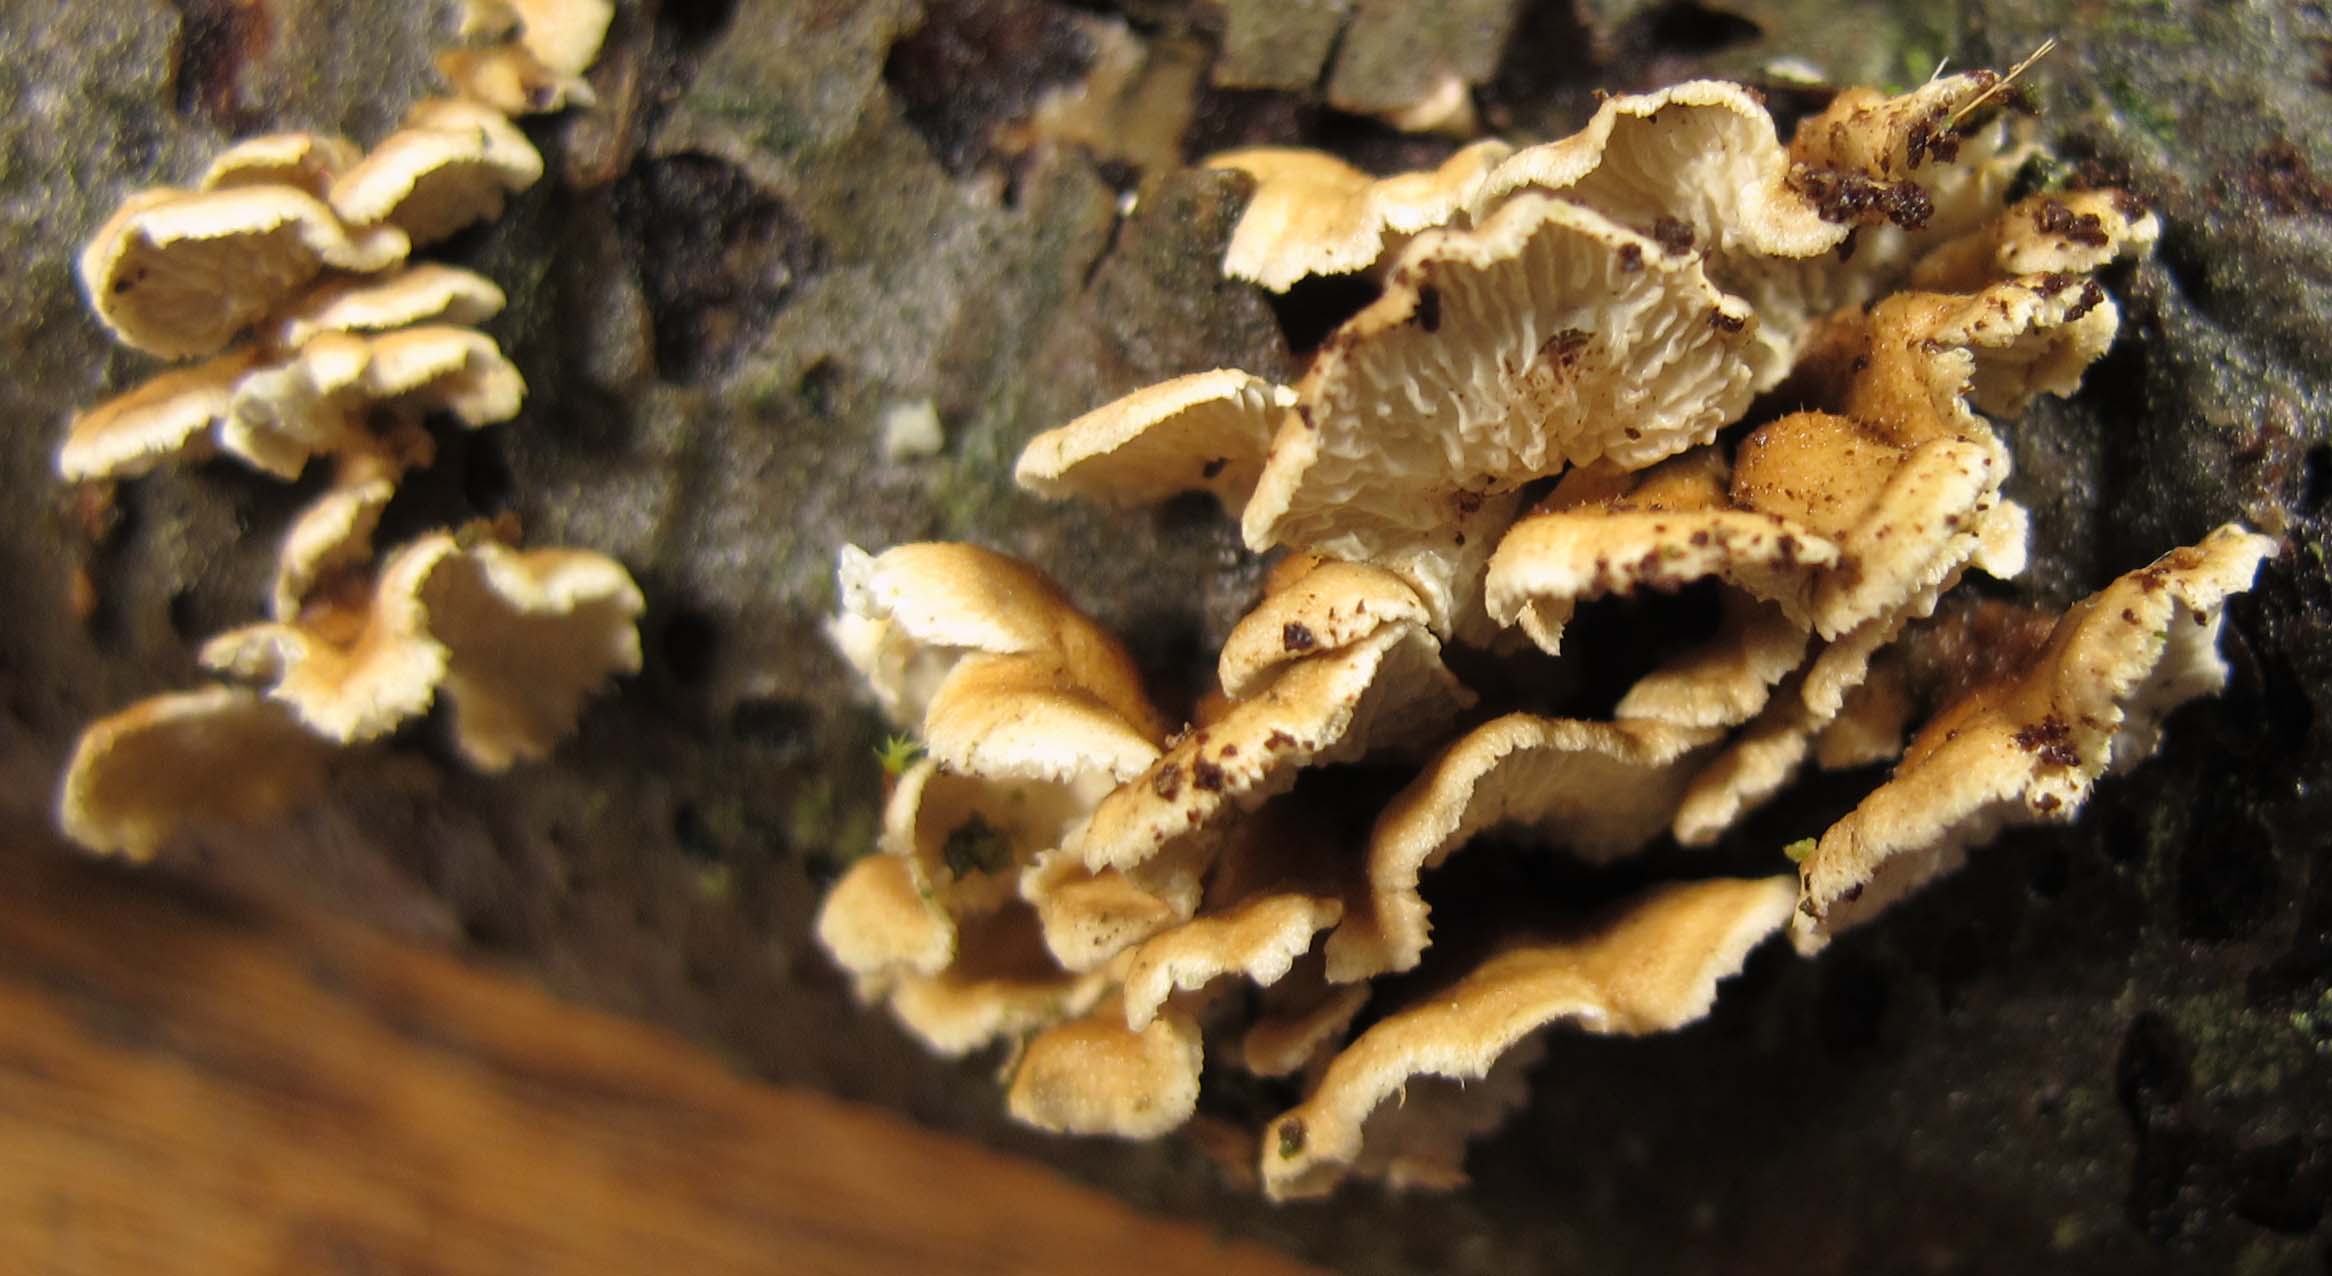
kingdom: Fungi
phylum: Basidiomycota
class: Agaricomycetes
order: Amylocorticiales
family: Amylocorticiaceae
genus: Plicaturopsis
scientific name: Plicaturopsis crispa
